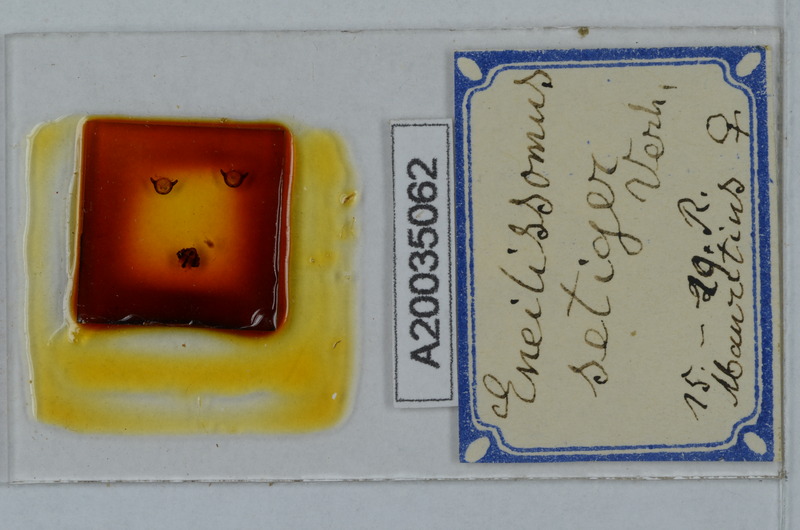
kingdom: Animalia
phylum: Arthropoda
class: Diplopoda
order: Polydesmida
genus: Eneillissomus
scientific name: Eneillissomus setiger
